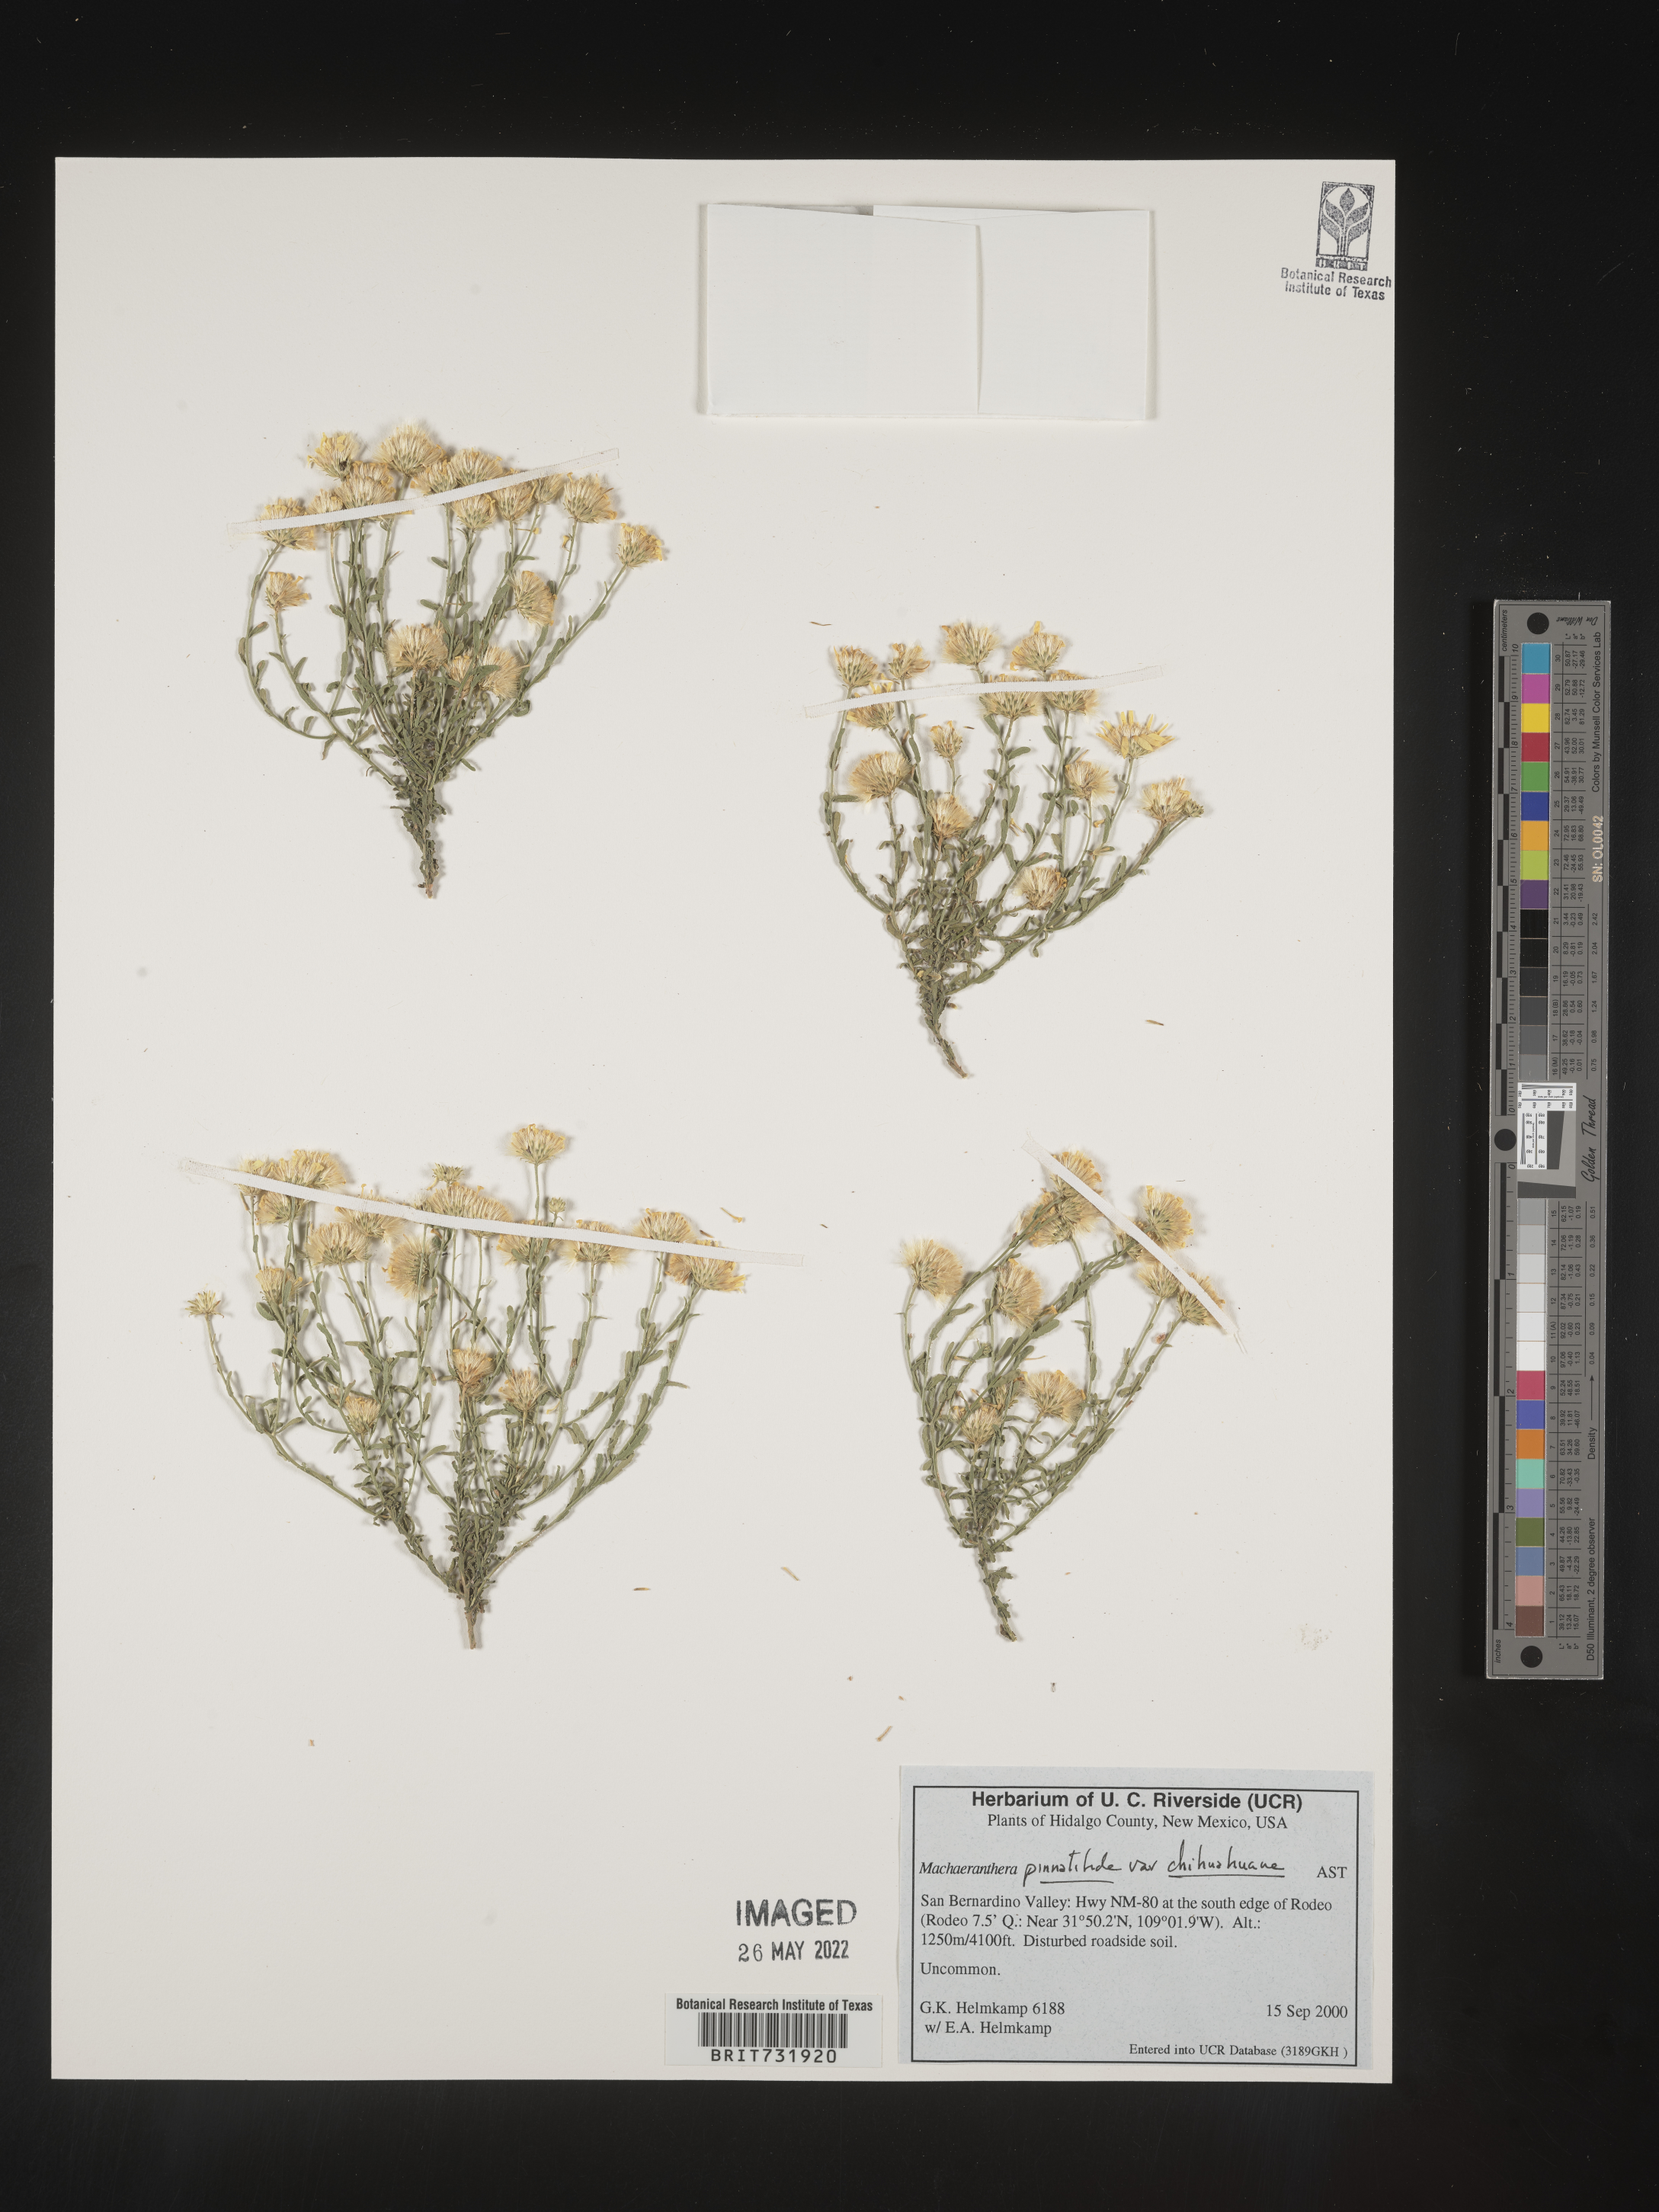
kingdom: Plantae
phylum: Tracheophyta
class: Magnoliopsida
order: Asterales
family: Asteraceae
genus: Xanthisma
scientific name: Xanthisma spinulosum
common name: Spiny goldenweed
